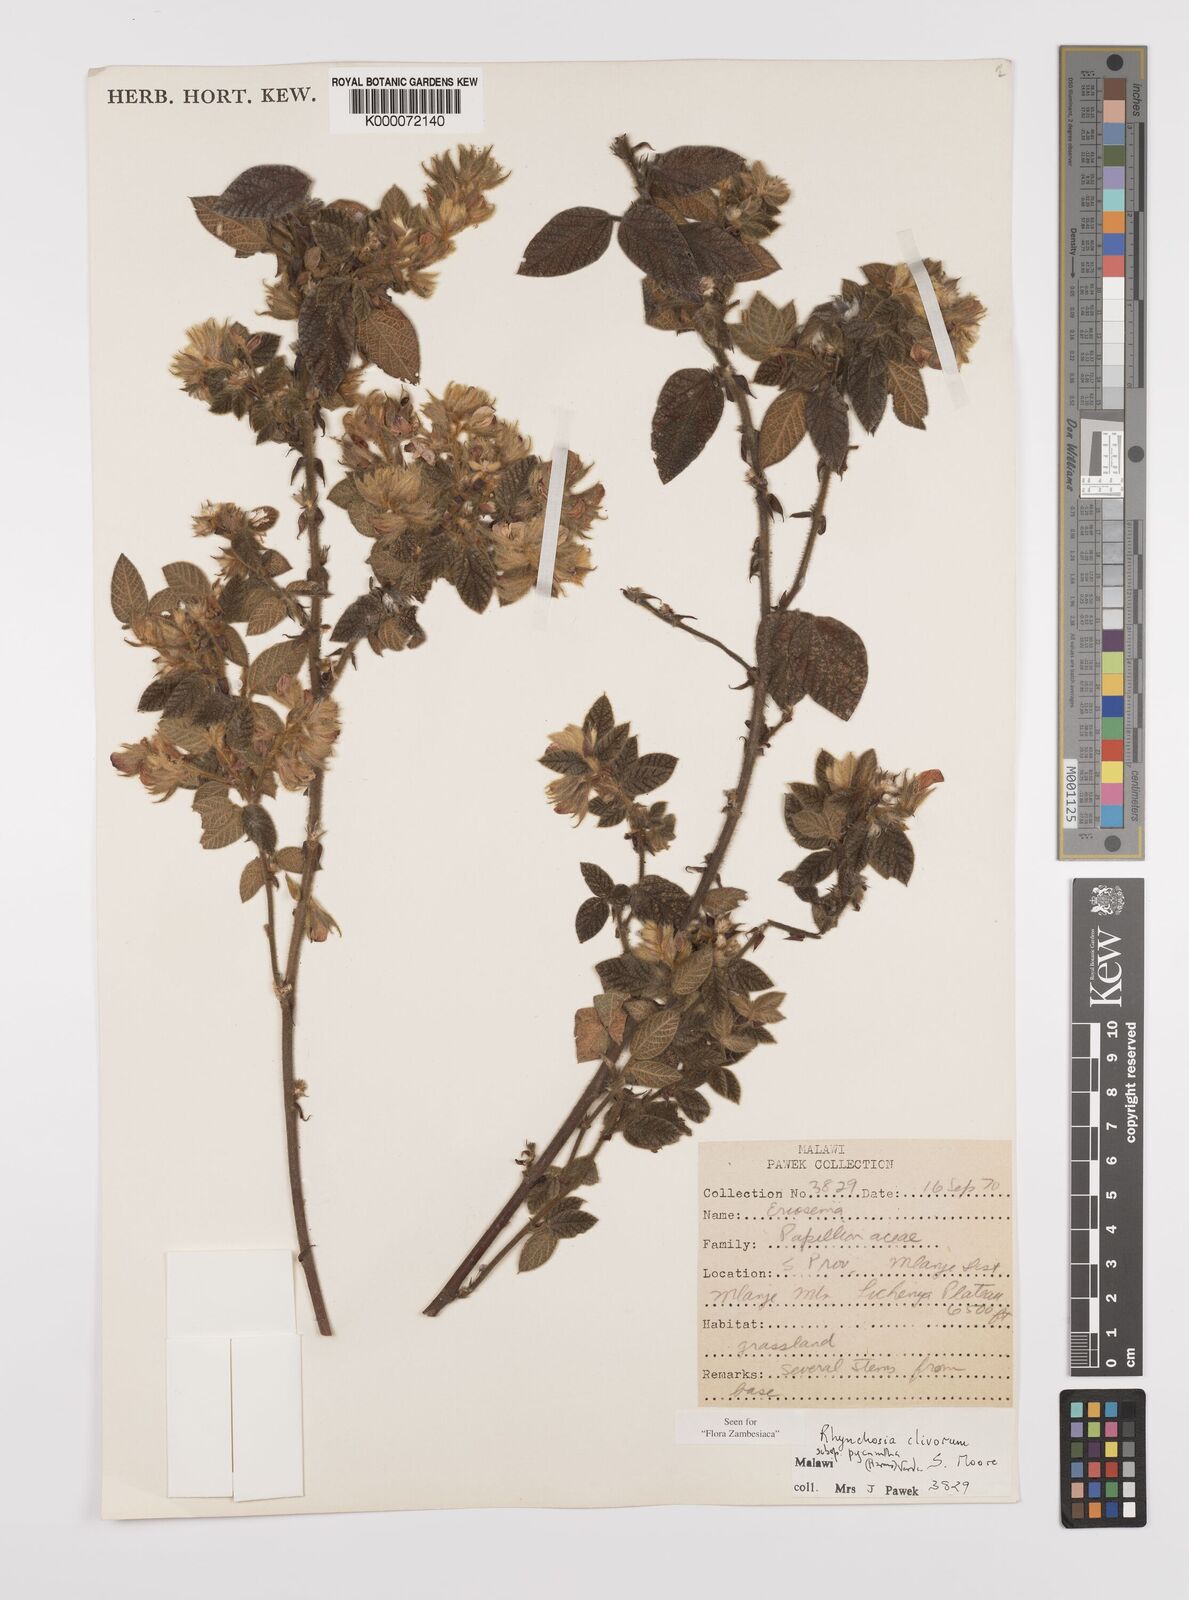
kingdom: Plantae
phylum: Tracheophyta
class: Magnoliopsida
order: Fabales
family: Fabaceae
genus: Rhynchosia
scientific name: Rhynchosia clivorum
